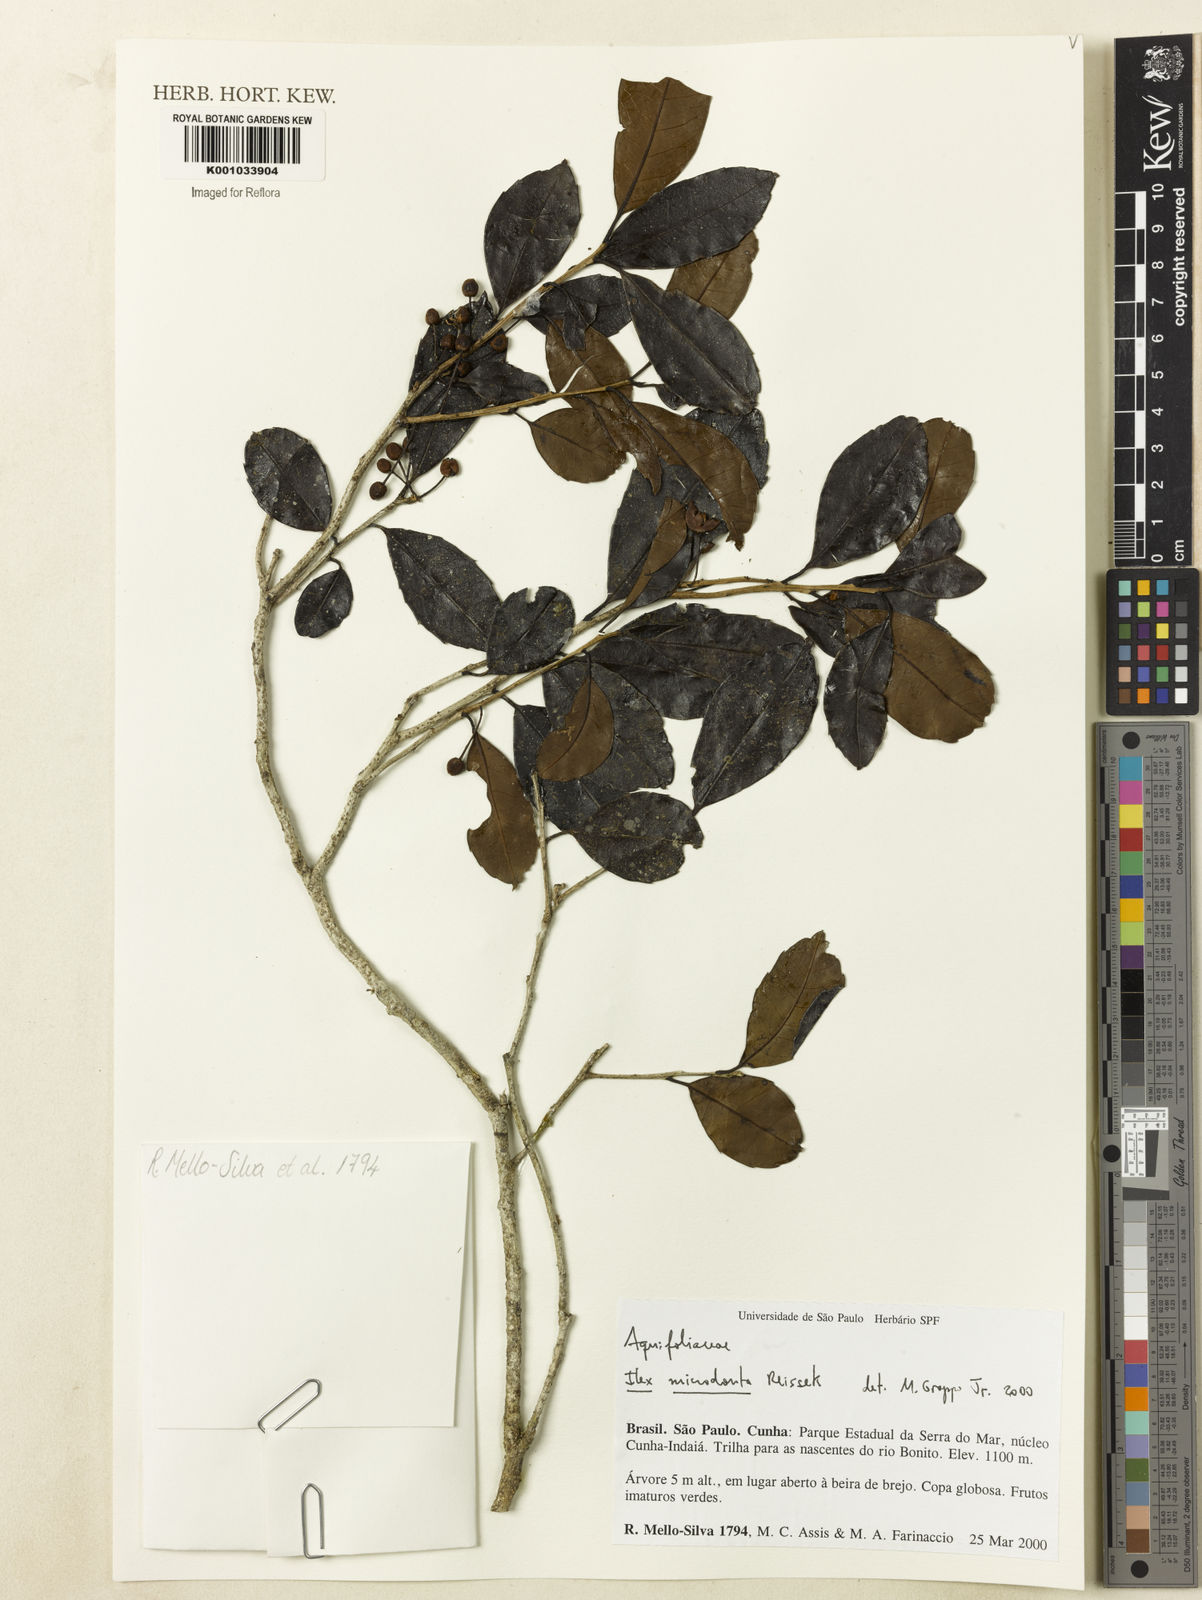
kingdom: Plantae
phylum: Tracheophyta
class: Magnoliopsida
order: Aquifoliales
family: Aquifoliaceae
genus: Ilex
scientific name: Ilex microdonta
